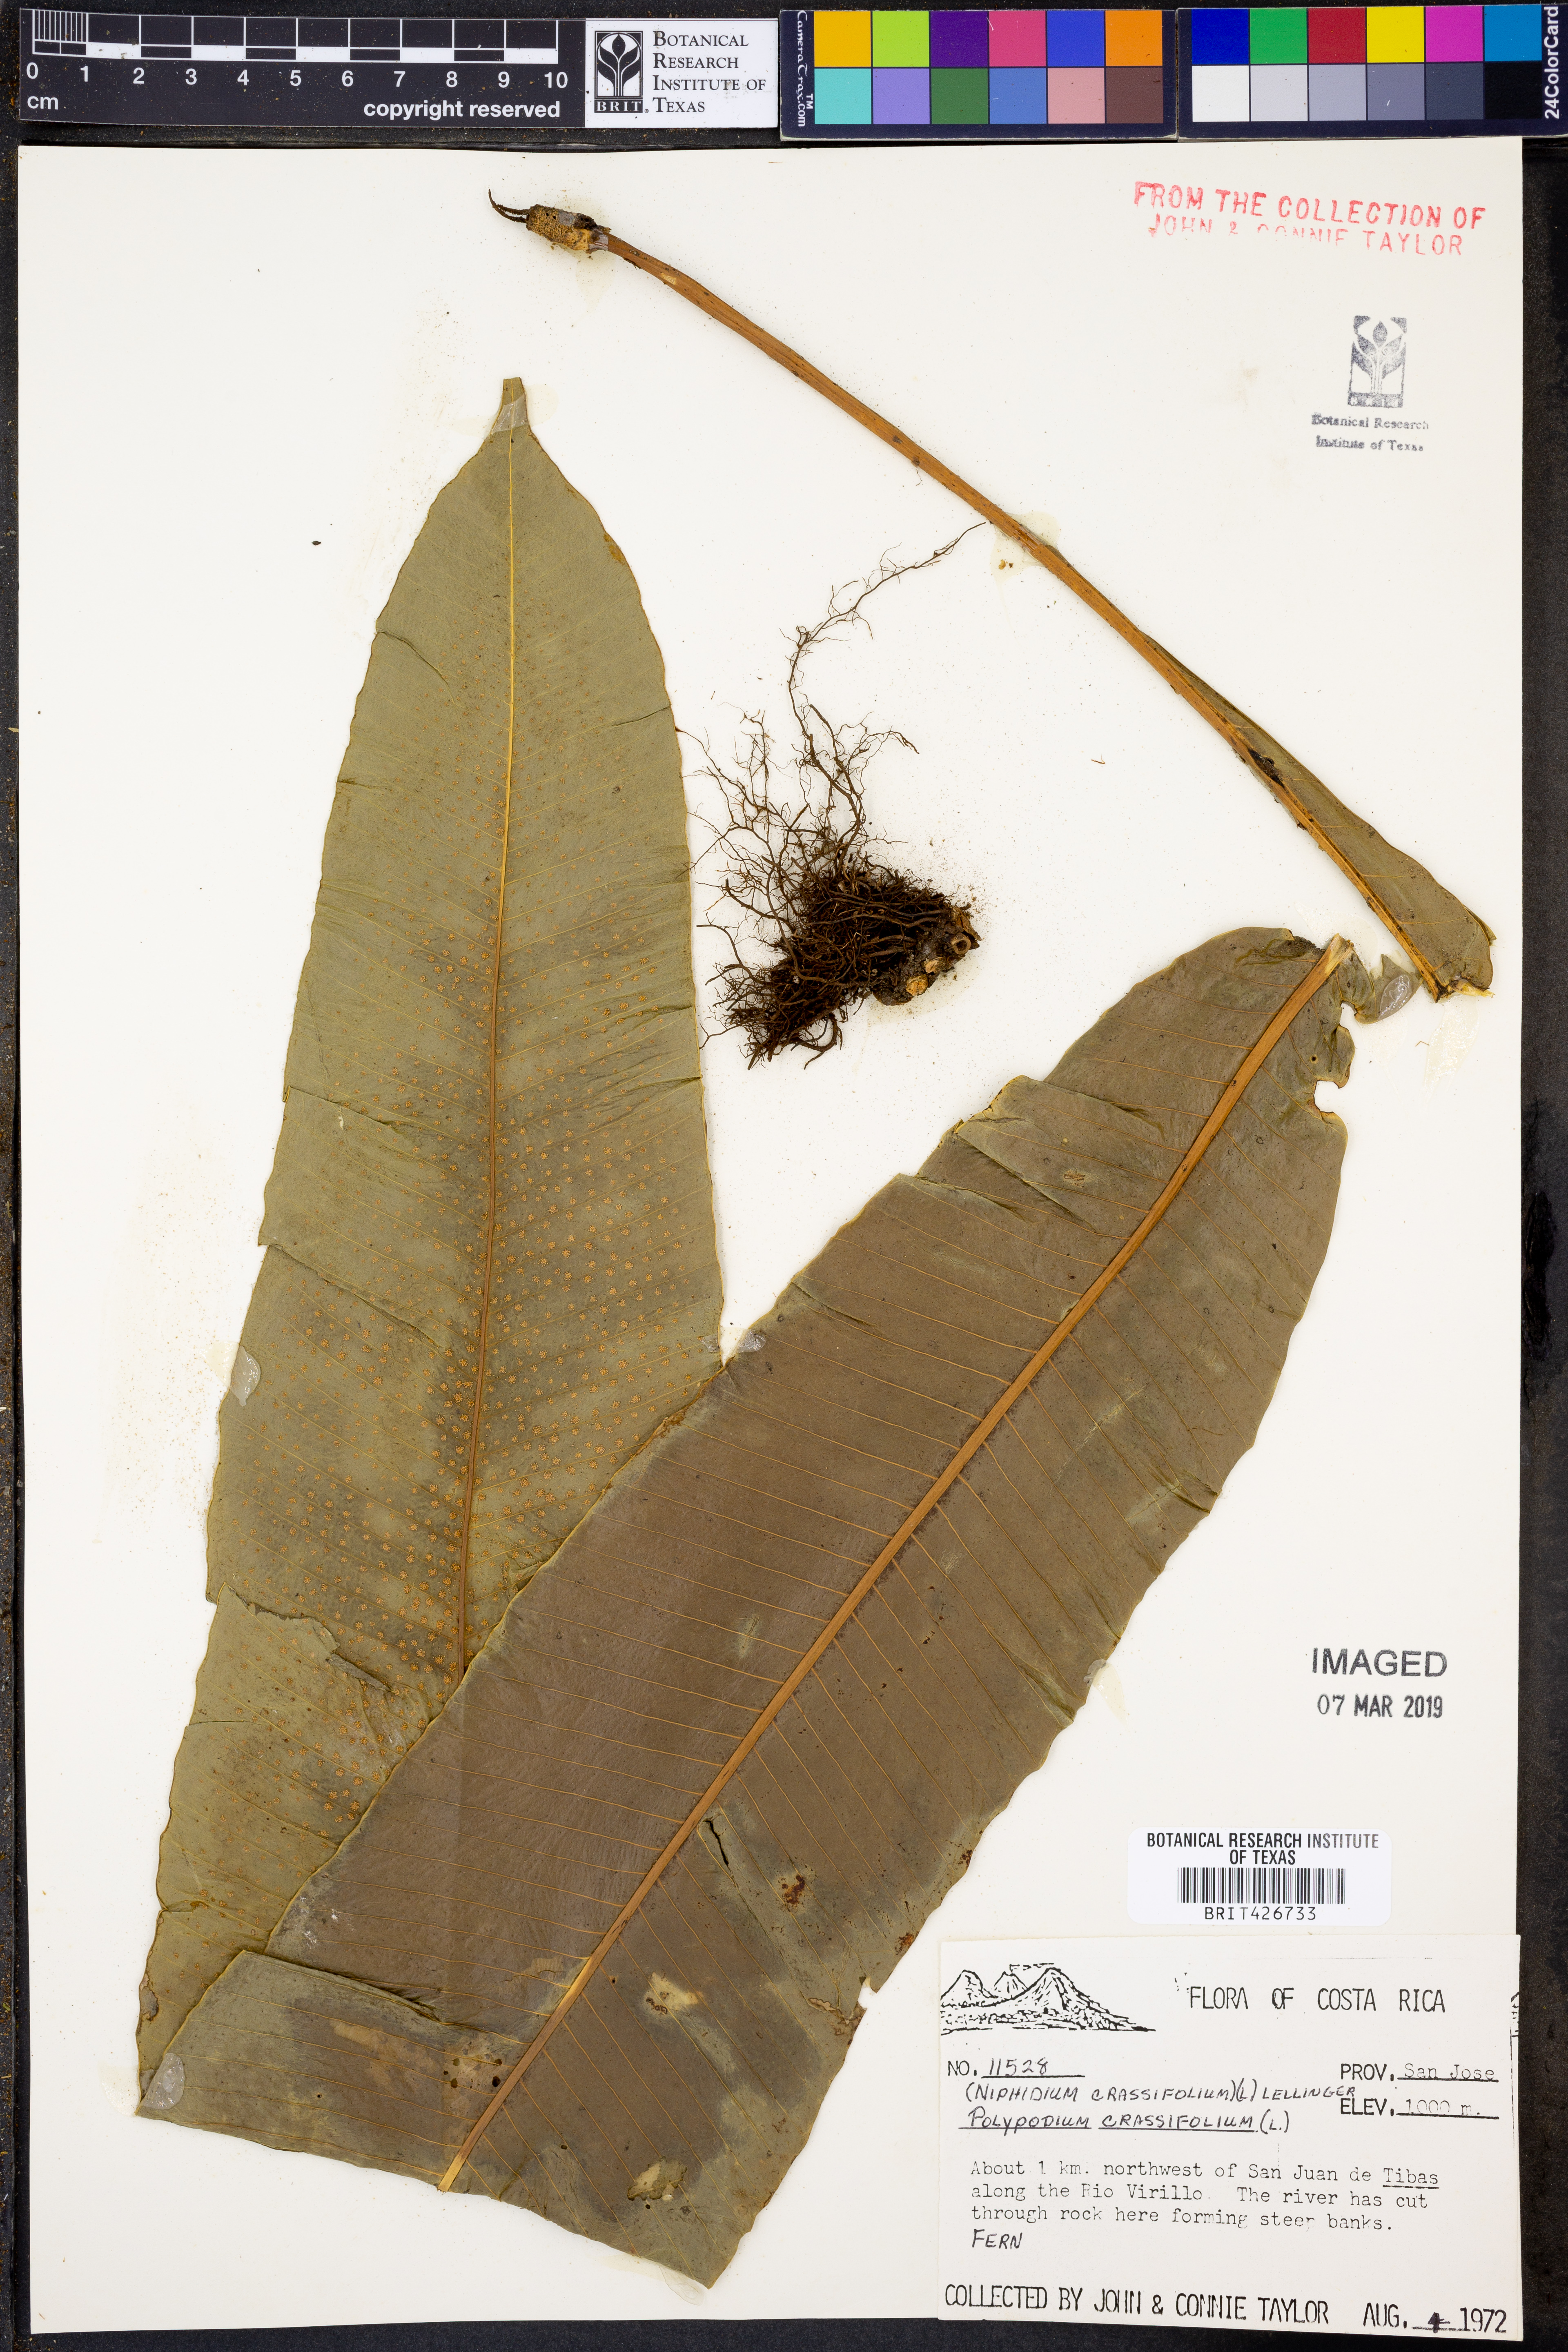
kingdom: Plantae
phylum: Tracheophyta
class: Polypodiopsida
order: Polypodiales
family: Polypodiaceae
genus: Niphidium
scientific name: Niphidium crassifolium
